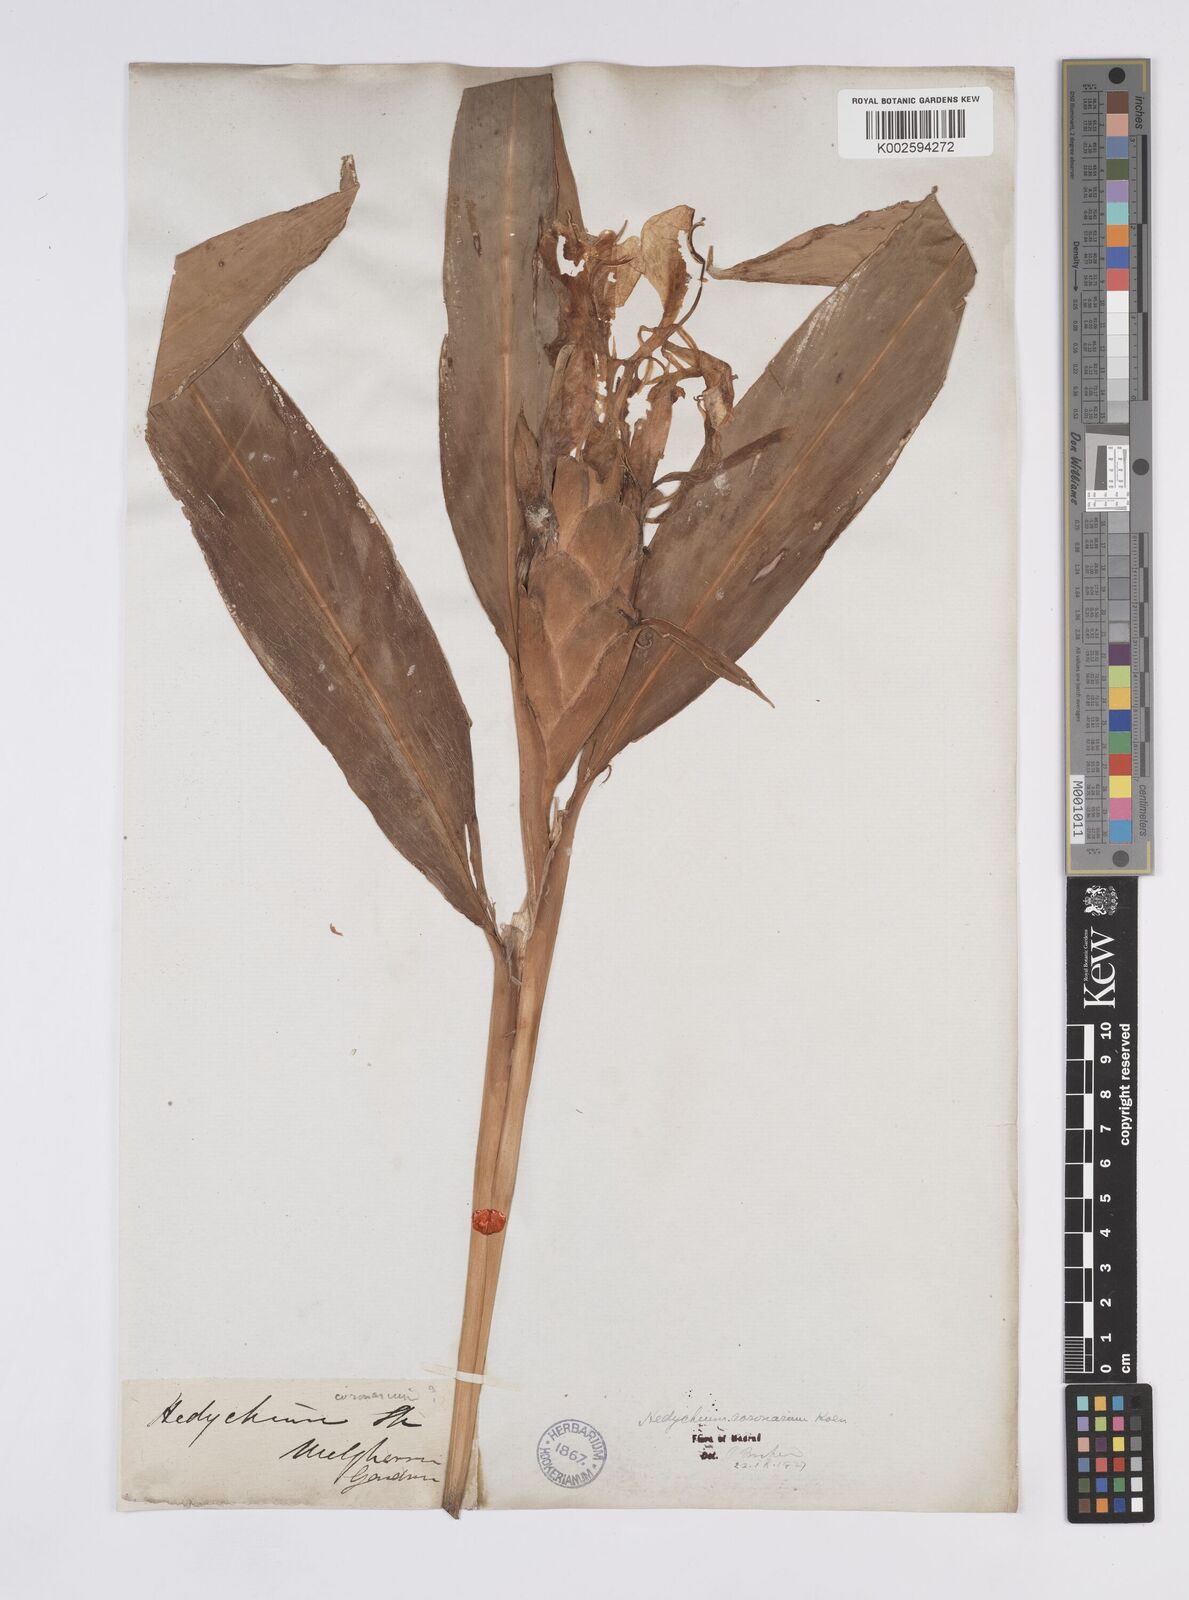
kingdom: Plantae
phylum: Tracheophyta
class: Liliopsida
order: Zingiberales
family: Zingiberaceae
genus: Hedychium
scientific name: Hedychium coronarium
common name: White garland-lily
